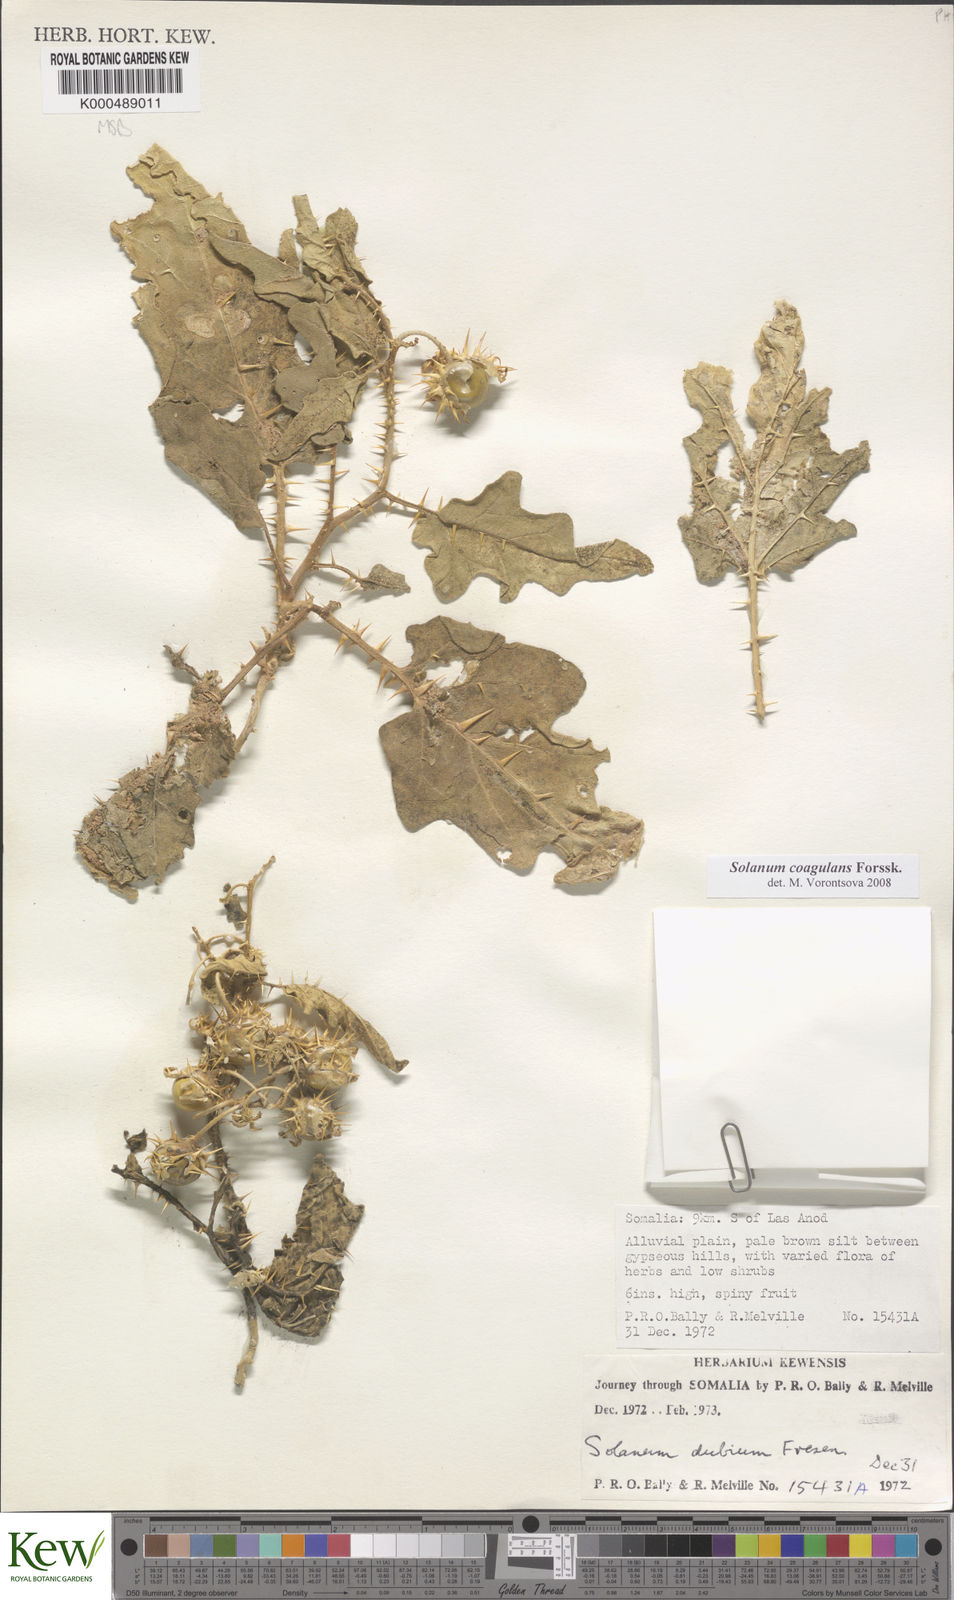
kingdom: Plantae
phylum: Tracheophyta
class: Magnoliopsida
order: Solanales
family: Solanaceae
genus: Solanum
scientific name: Solanum coagulans
